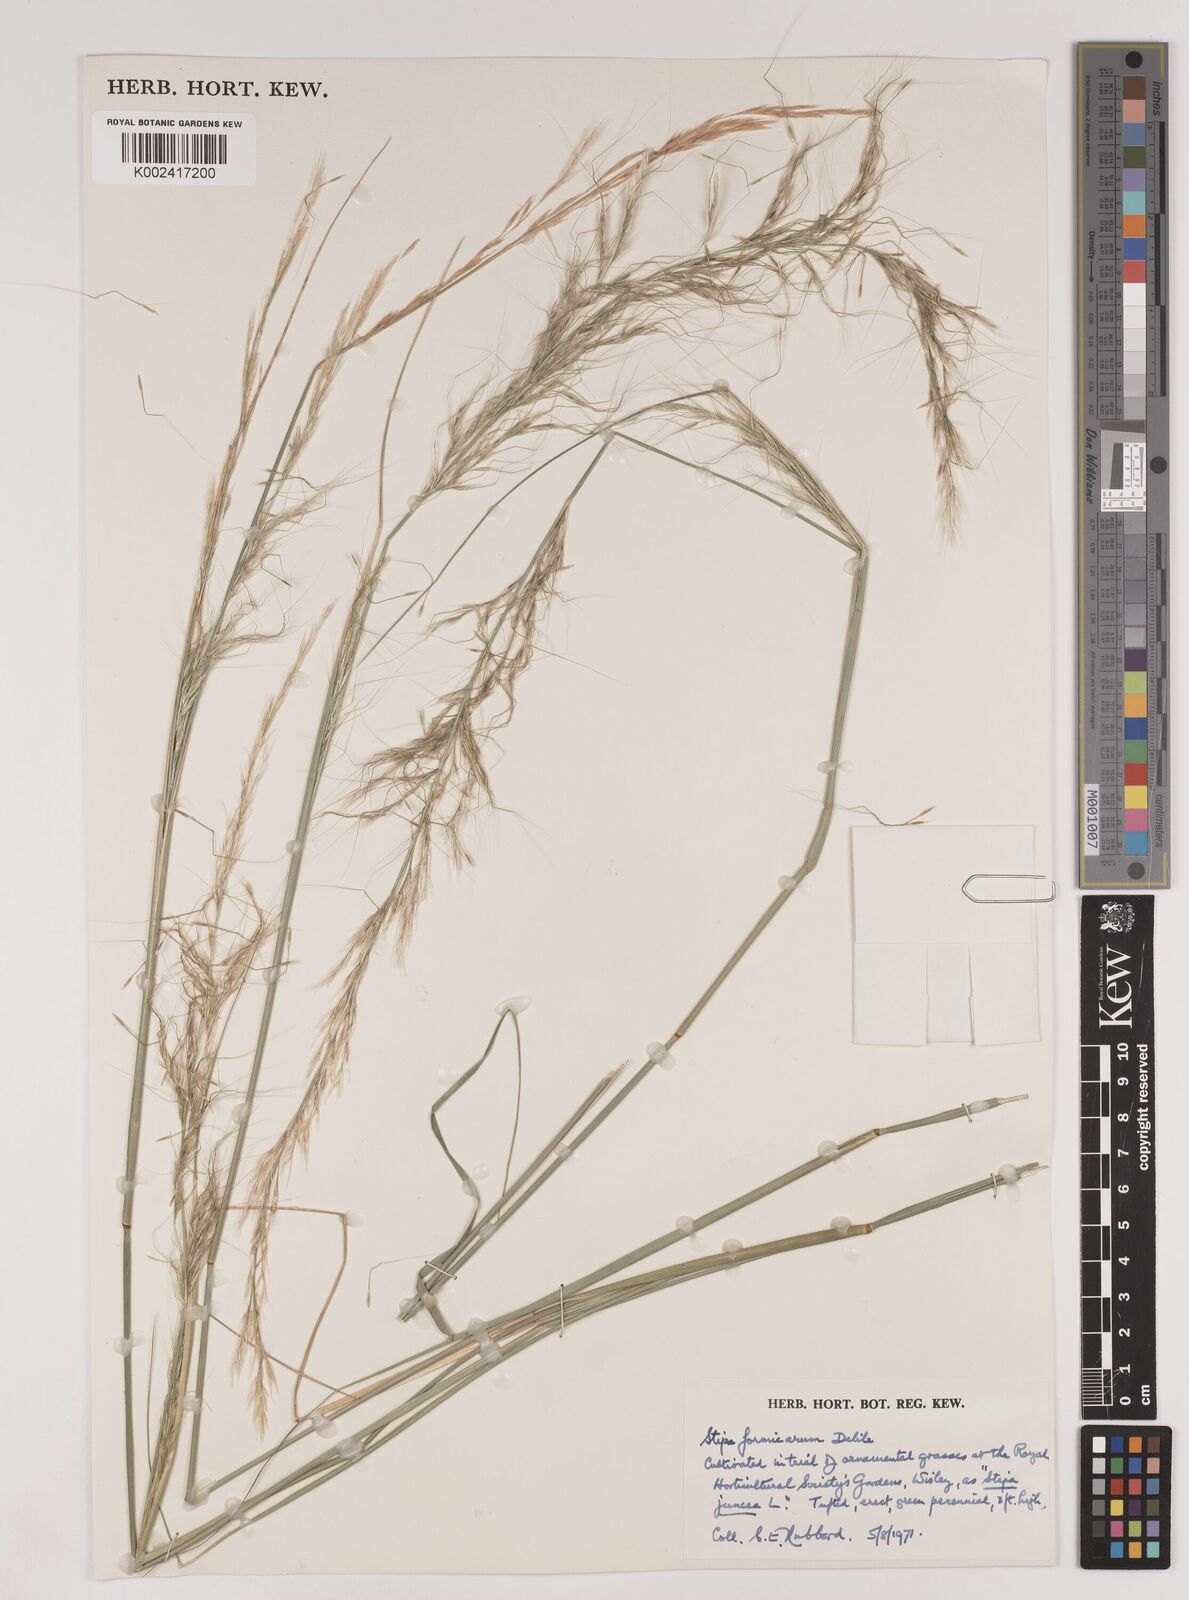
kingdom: Plantae
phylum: Tracheophyta
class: Liliopsida
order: Poales
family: Poaceae
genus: Nassella
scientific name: Nassella formicarum
